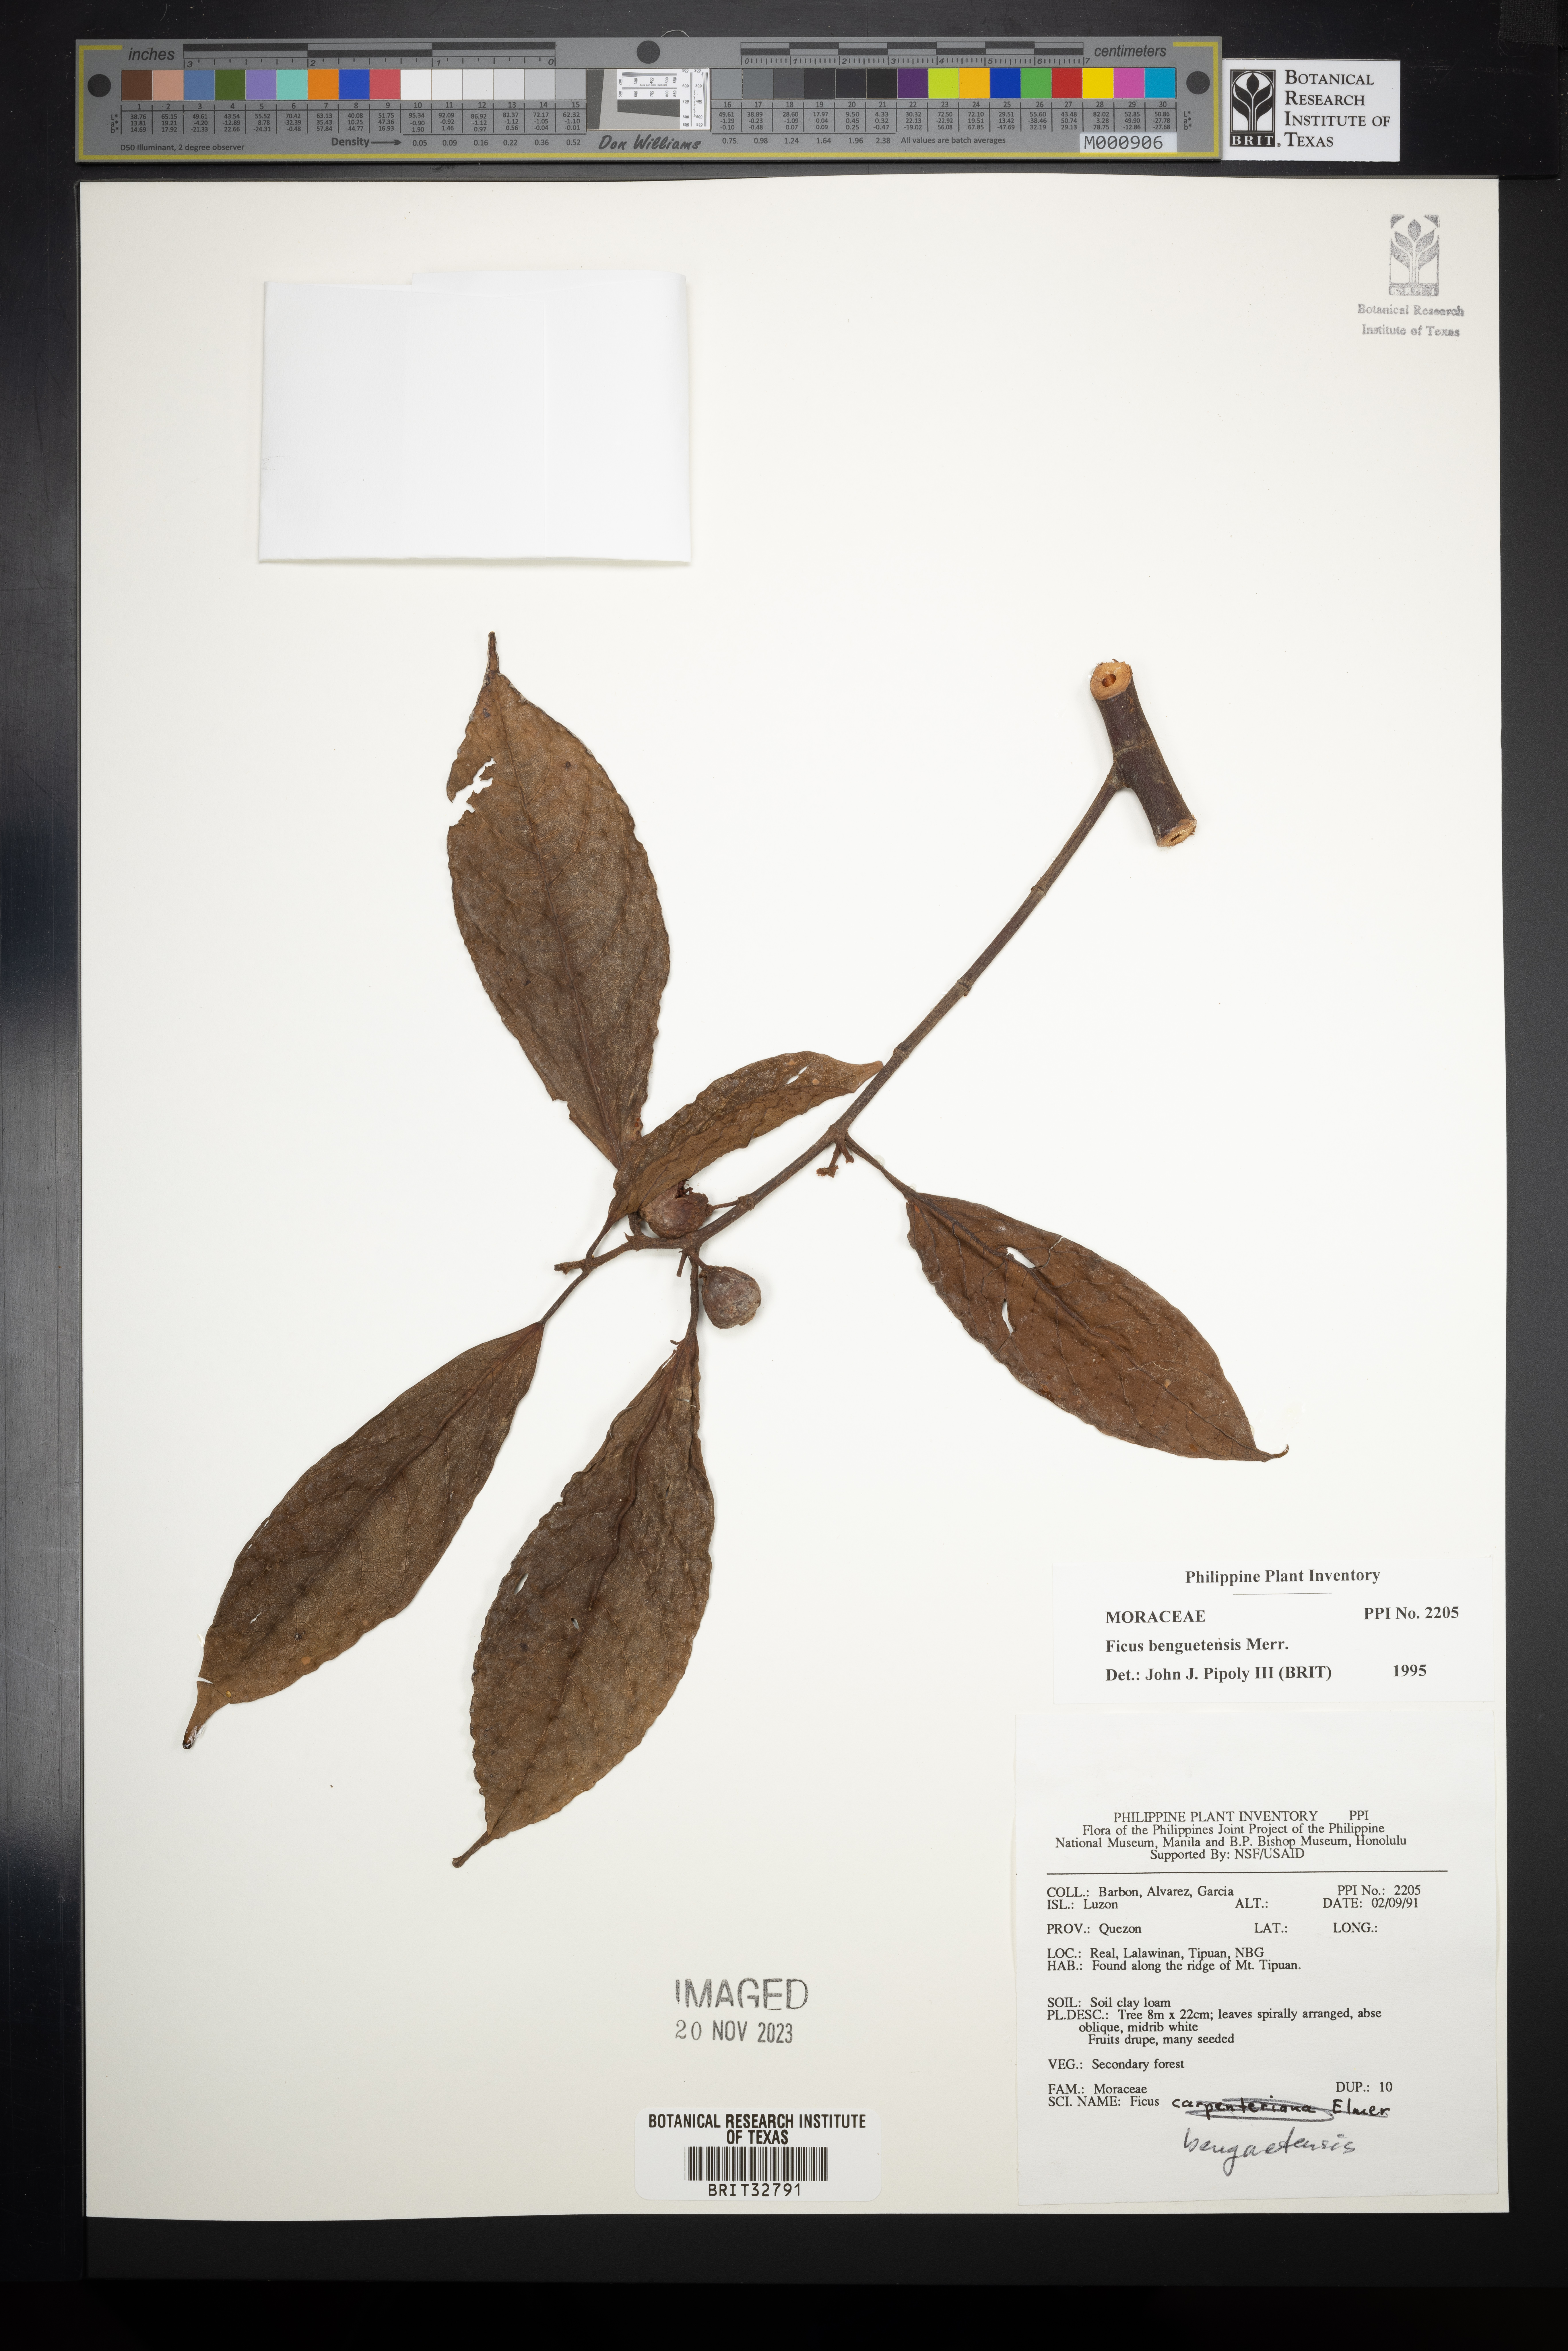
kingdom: Plantae
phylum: Tracheophyta
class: Magnoliopsida
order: Rosales
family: Moraceae
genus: Ficus
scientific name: Ficus benguetensis
